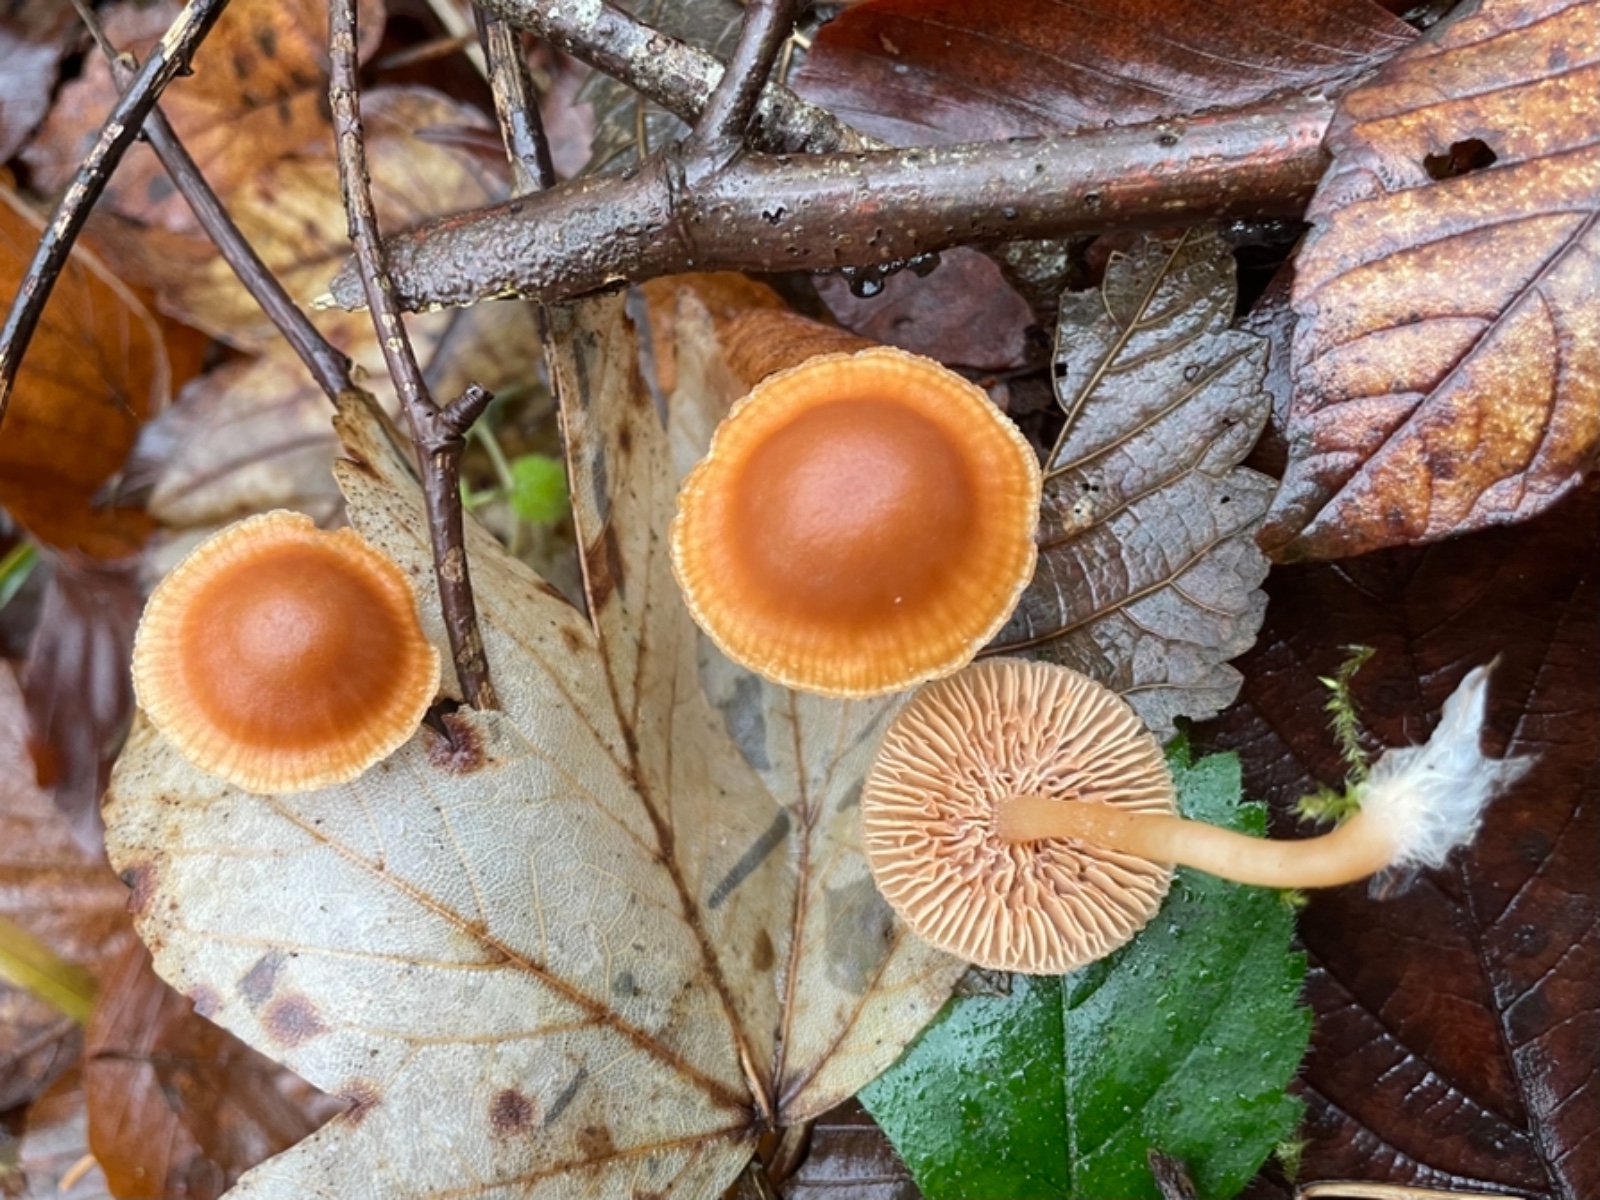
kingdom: Fungi
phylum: Basidiomycota
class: Agaricomycetes
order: Agaricales
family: Tubariaceae
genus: Tubaria
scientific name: Tubaria furfuracea
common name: kliddet fnughat
